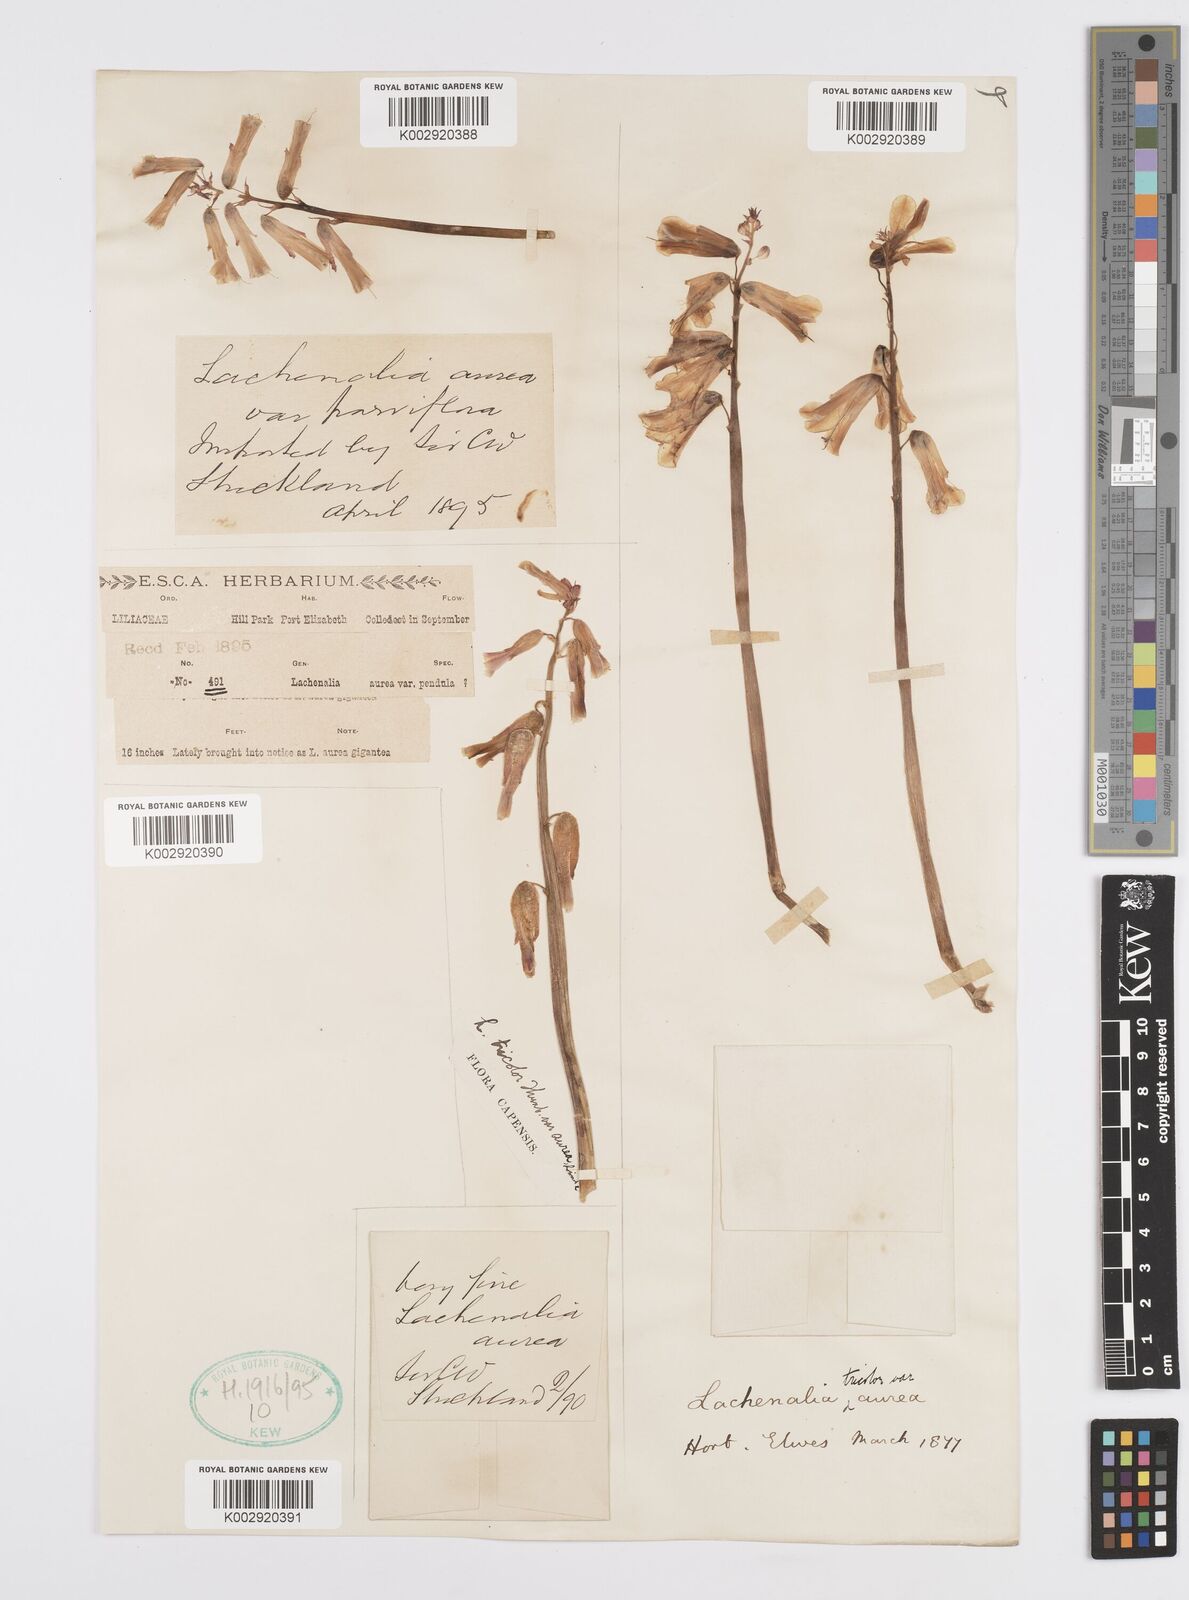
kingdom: Plantae
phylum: Tracheophyta
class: Liliopsida
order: Asparagales
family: Asparagaceae
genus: Lachenalia
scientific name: Lachenalia
